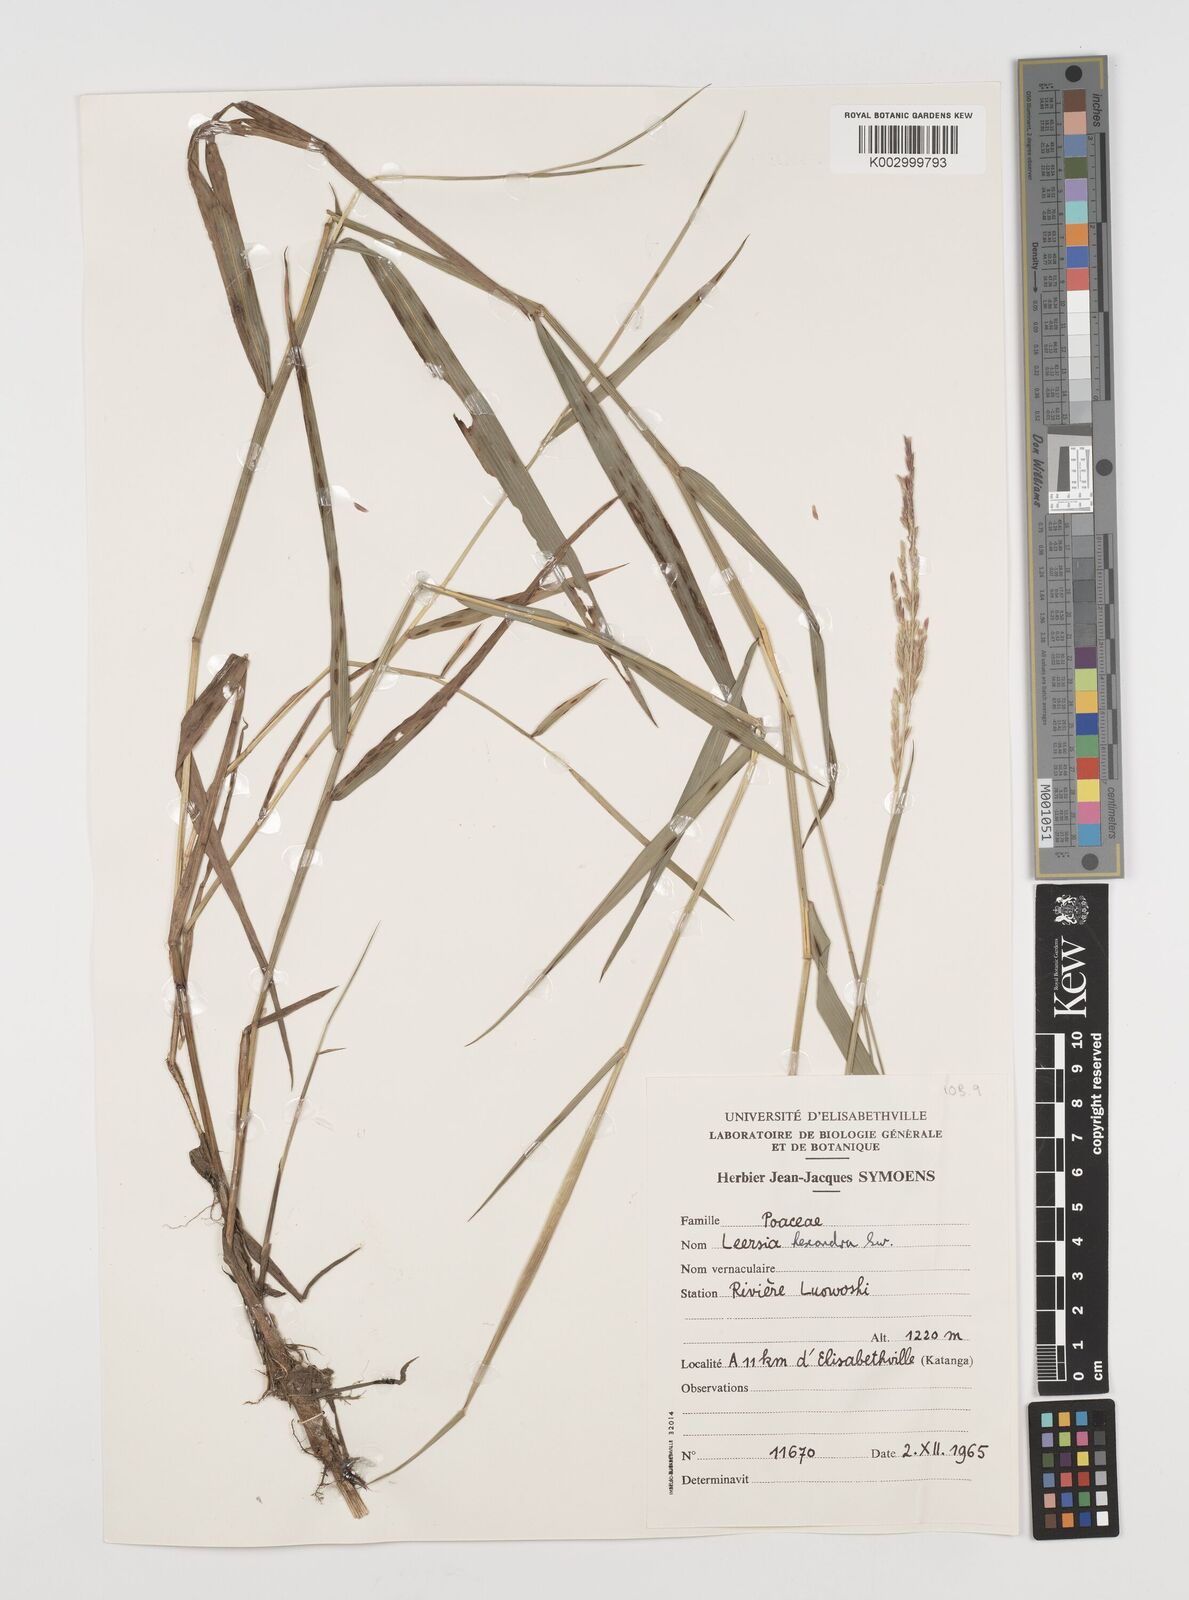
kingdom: Plantae
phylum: Tracheophyta
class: Liliopsida
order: Poales
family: Poaceae
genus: Leersia
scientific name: Leersia hexandra
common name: Southern cut grass
